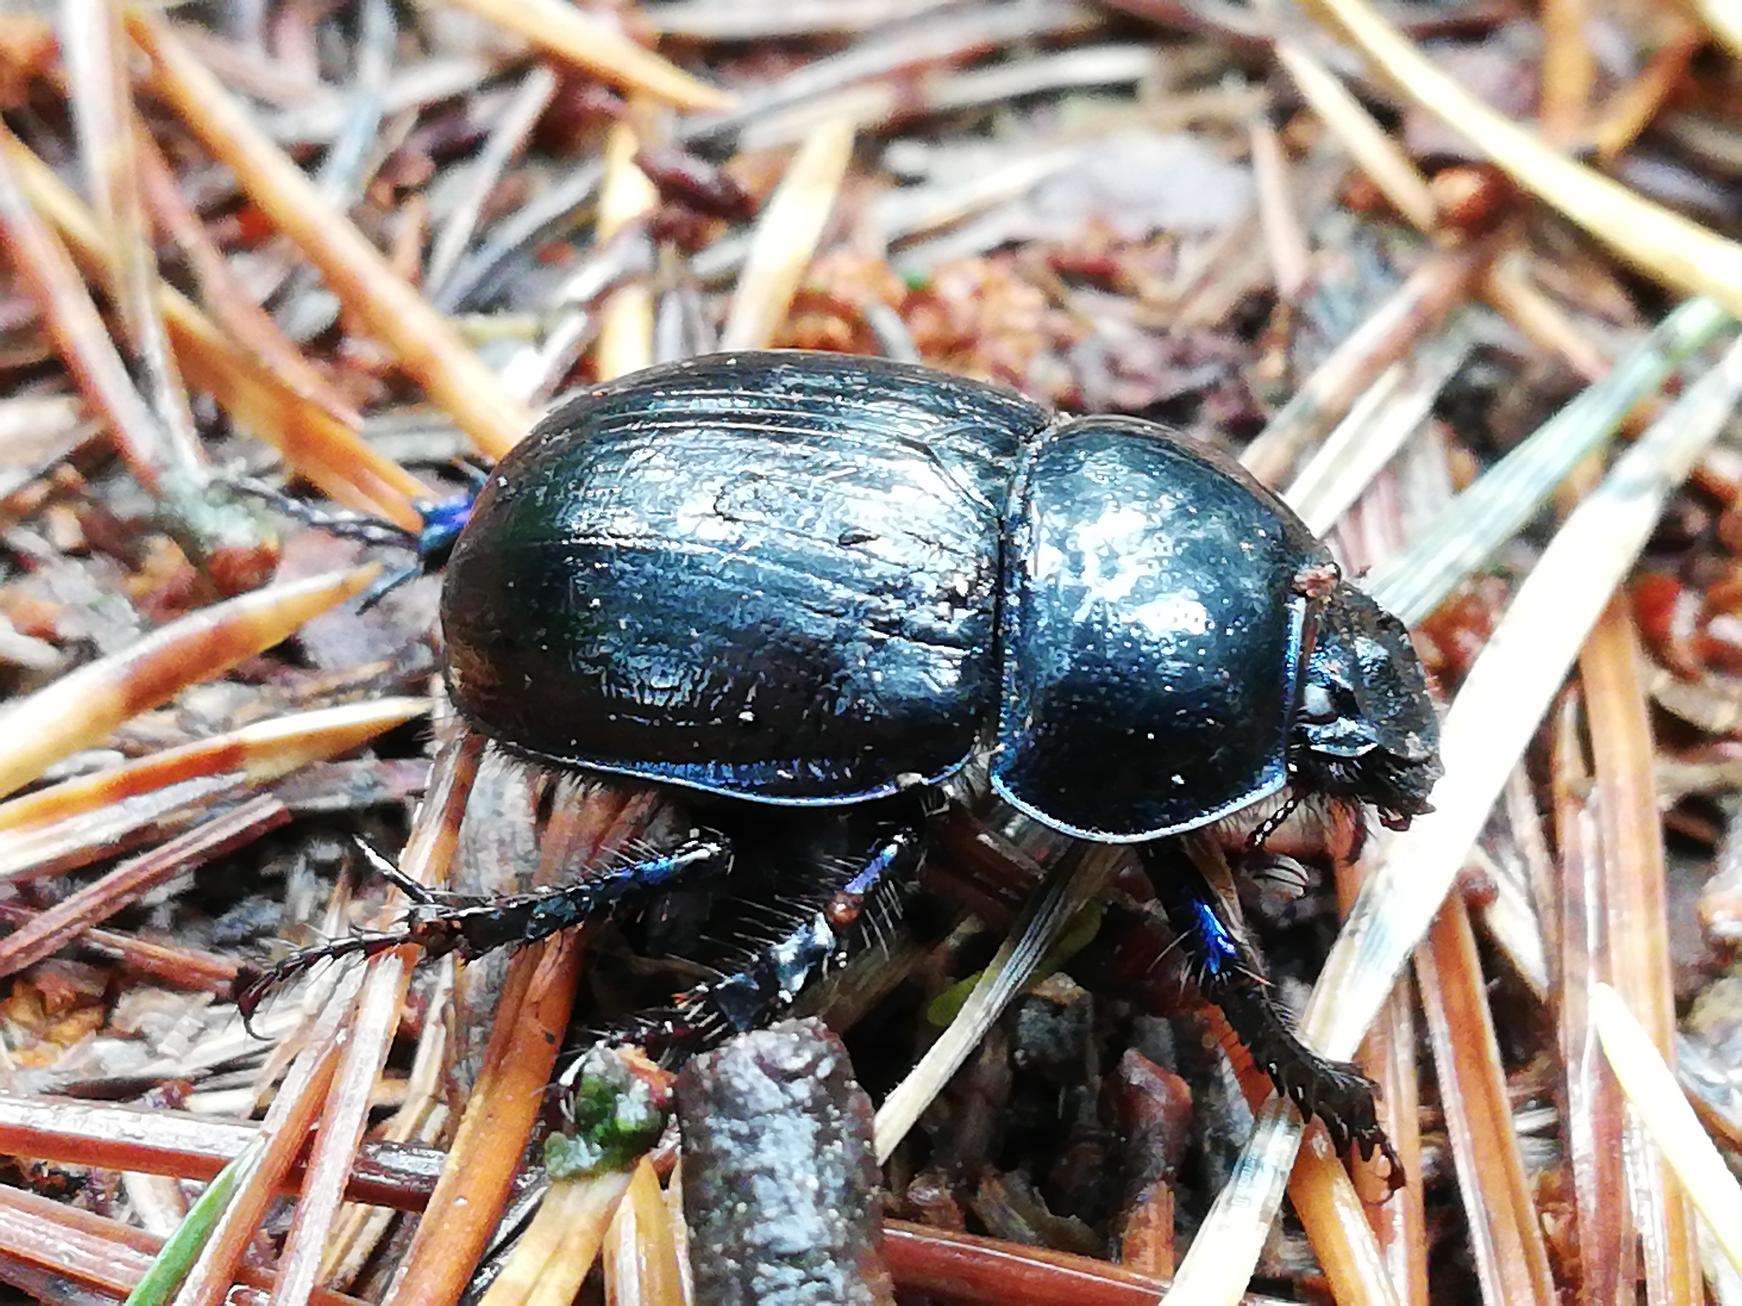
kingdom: Animalia
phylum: Arthropoda
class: Insecta
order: Coleoptera
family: Geotrupidae
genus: Anoplotrupes
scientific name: Anoplotrupes stercorosus
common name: Skovskarnbasse
